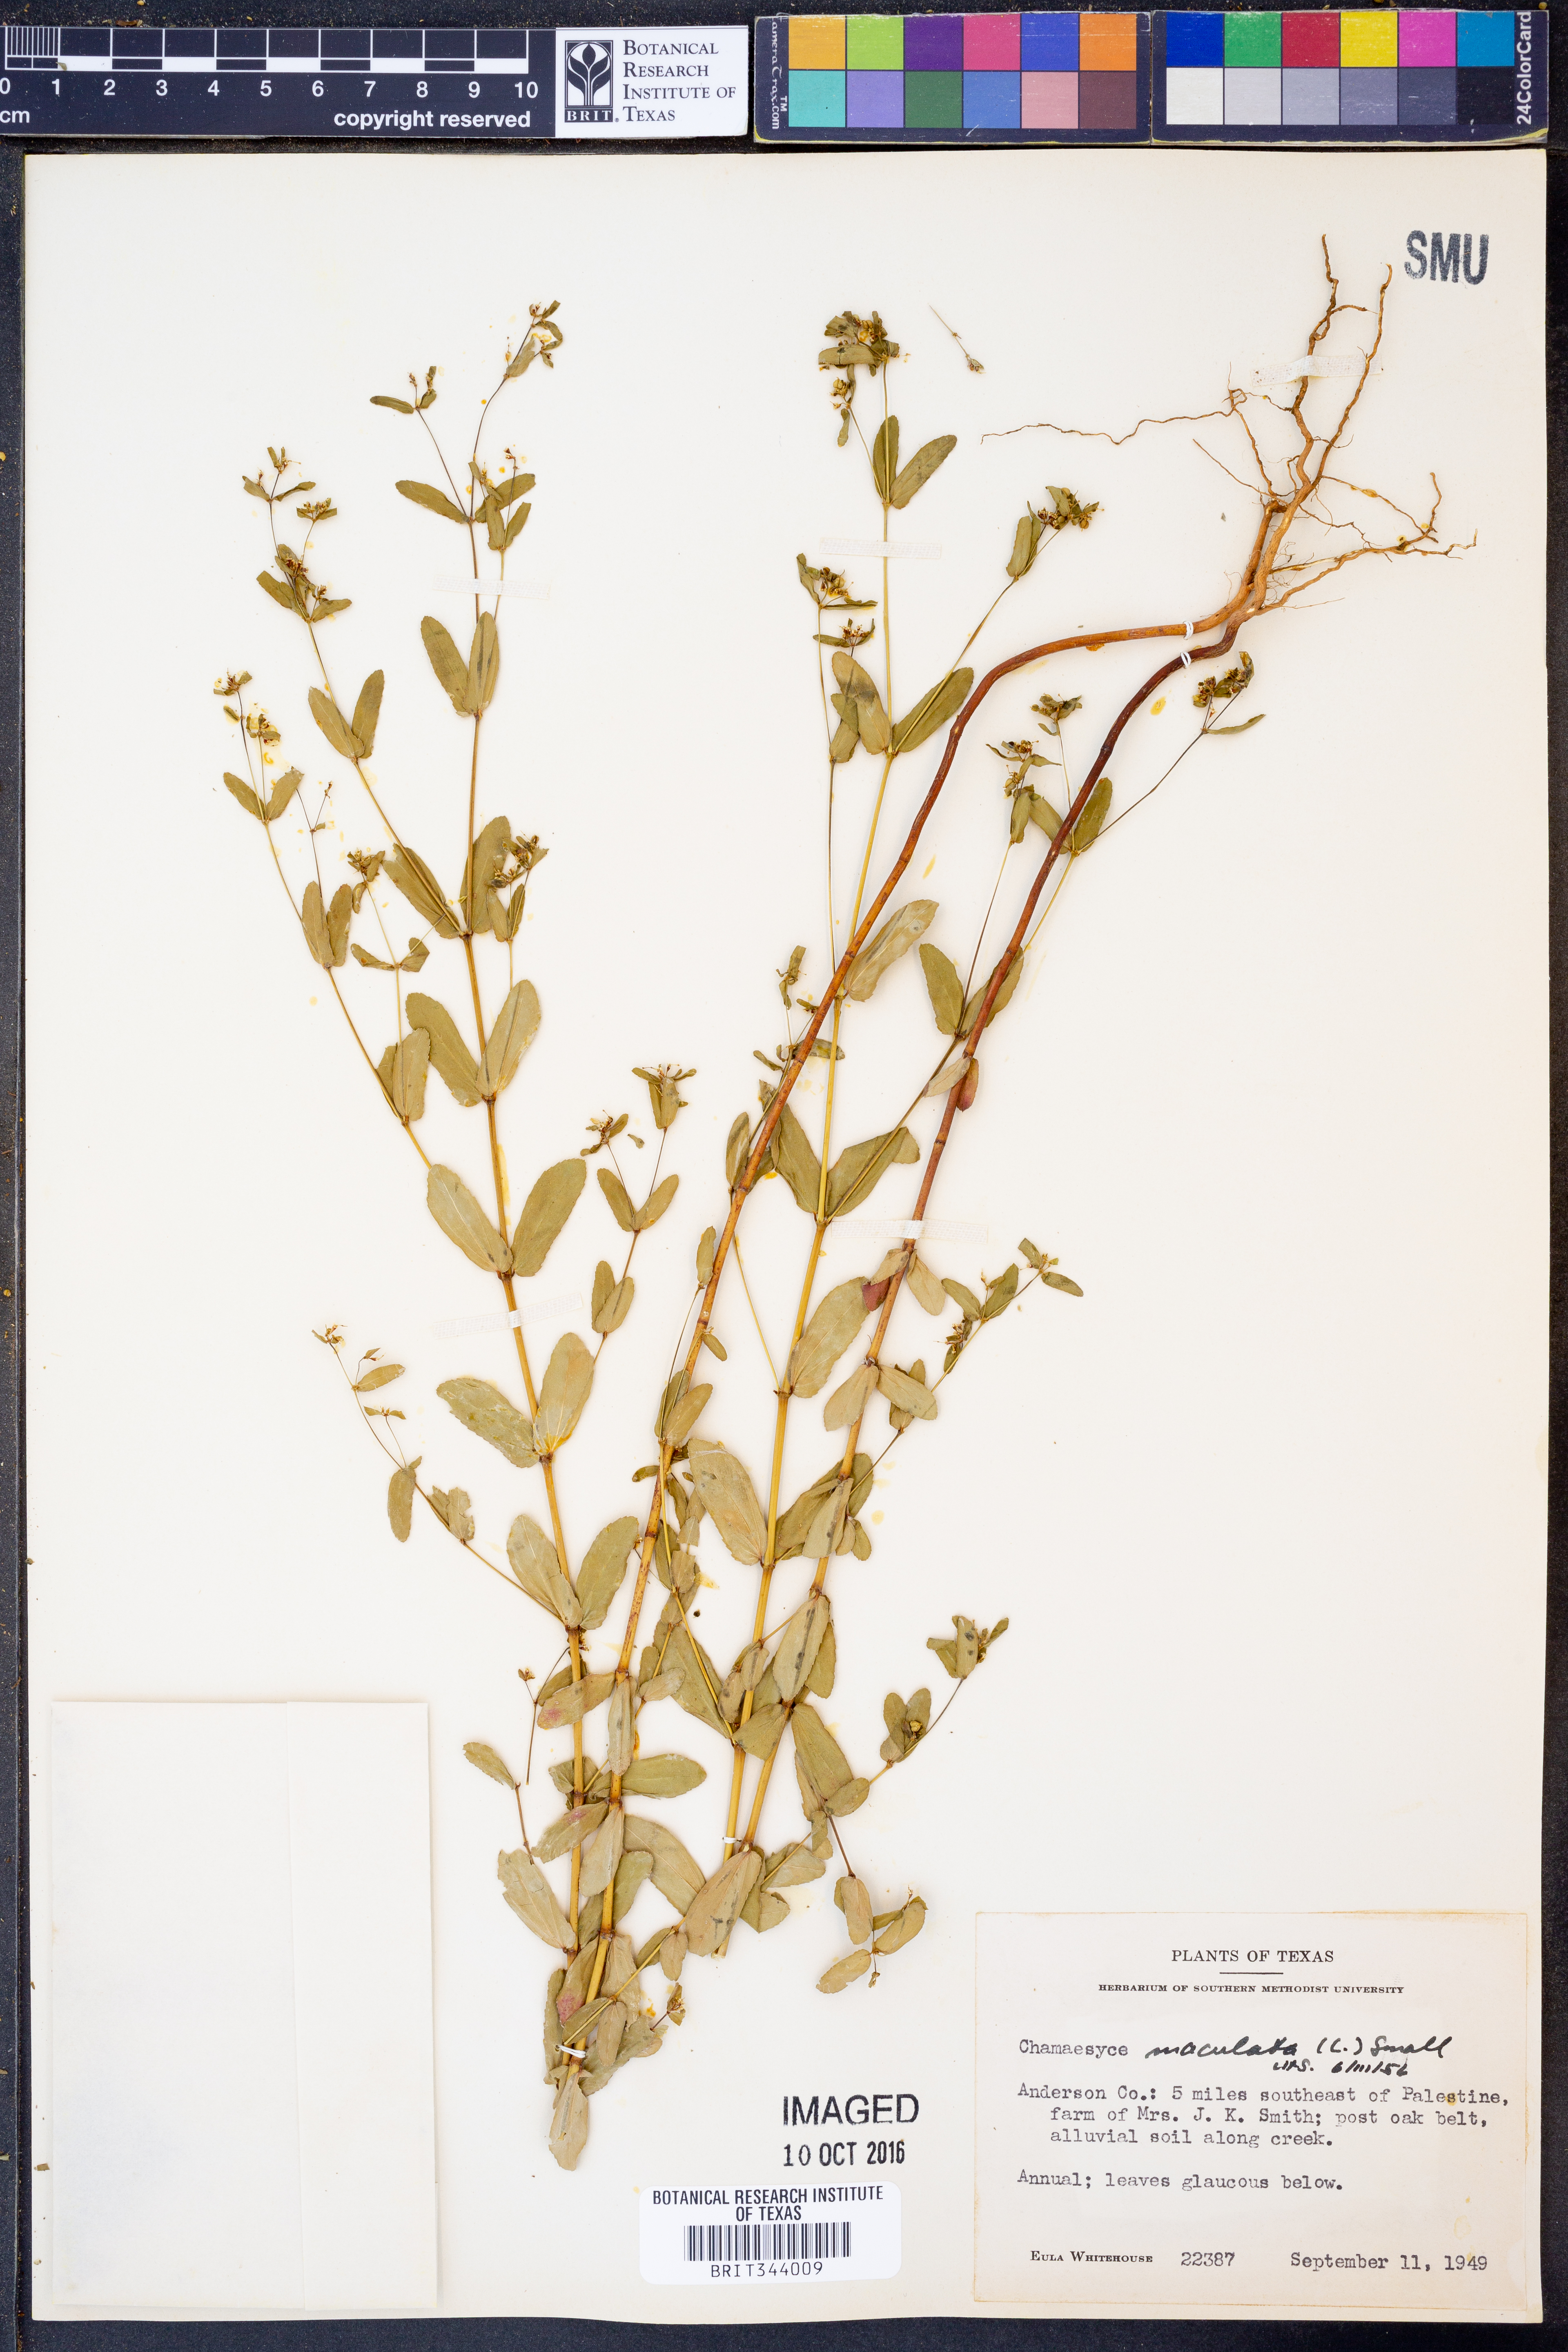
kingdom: Plantae
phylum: Tracheophyta
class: Magnoliopsida
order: Malpighiales
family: Euphorbiaceae
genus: Euphorbia
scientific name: Euphorbia maculata
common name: Spotted spurge
